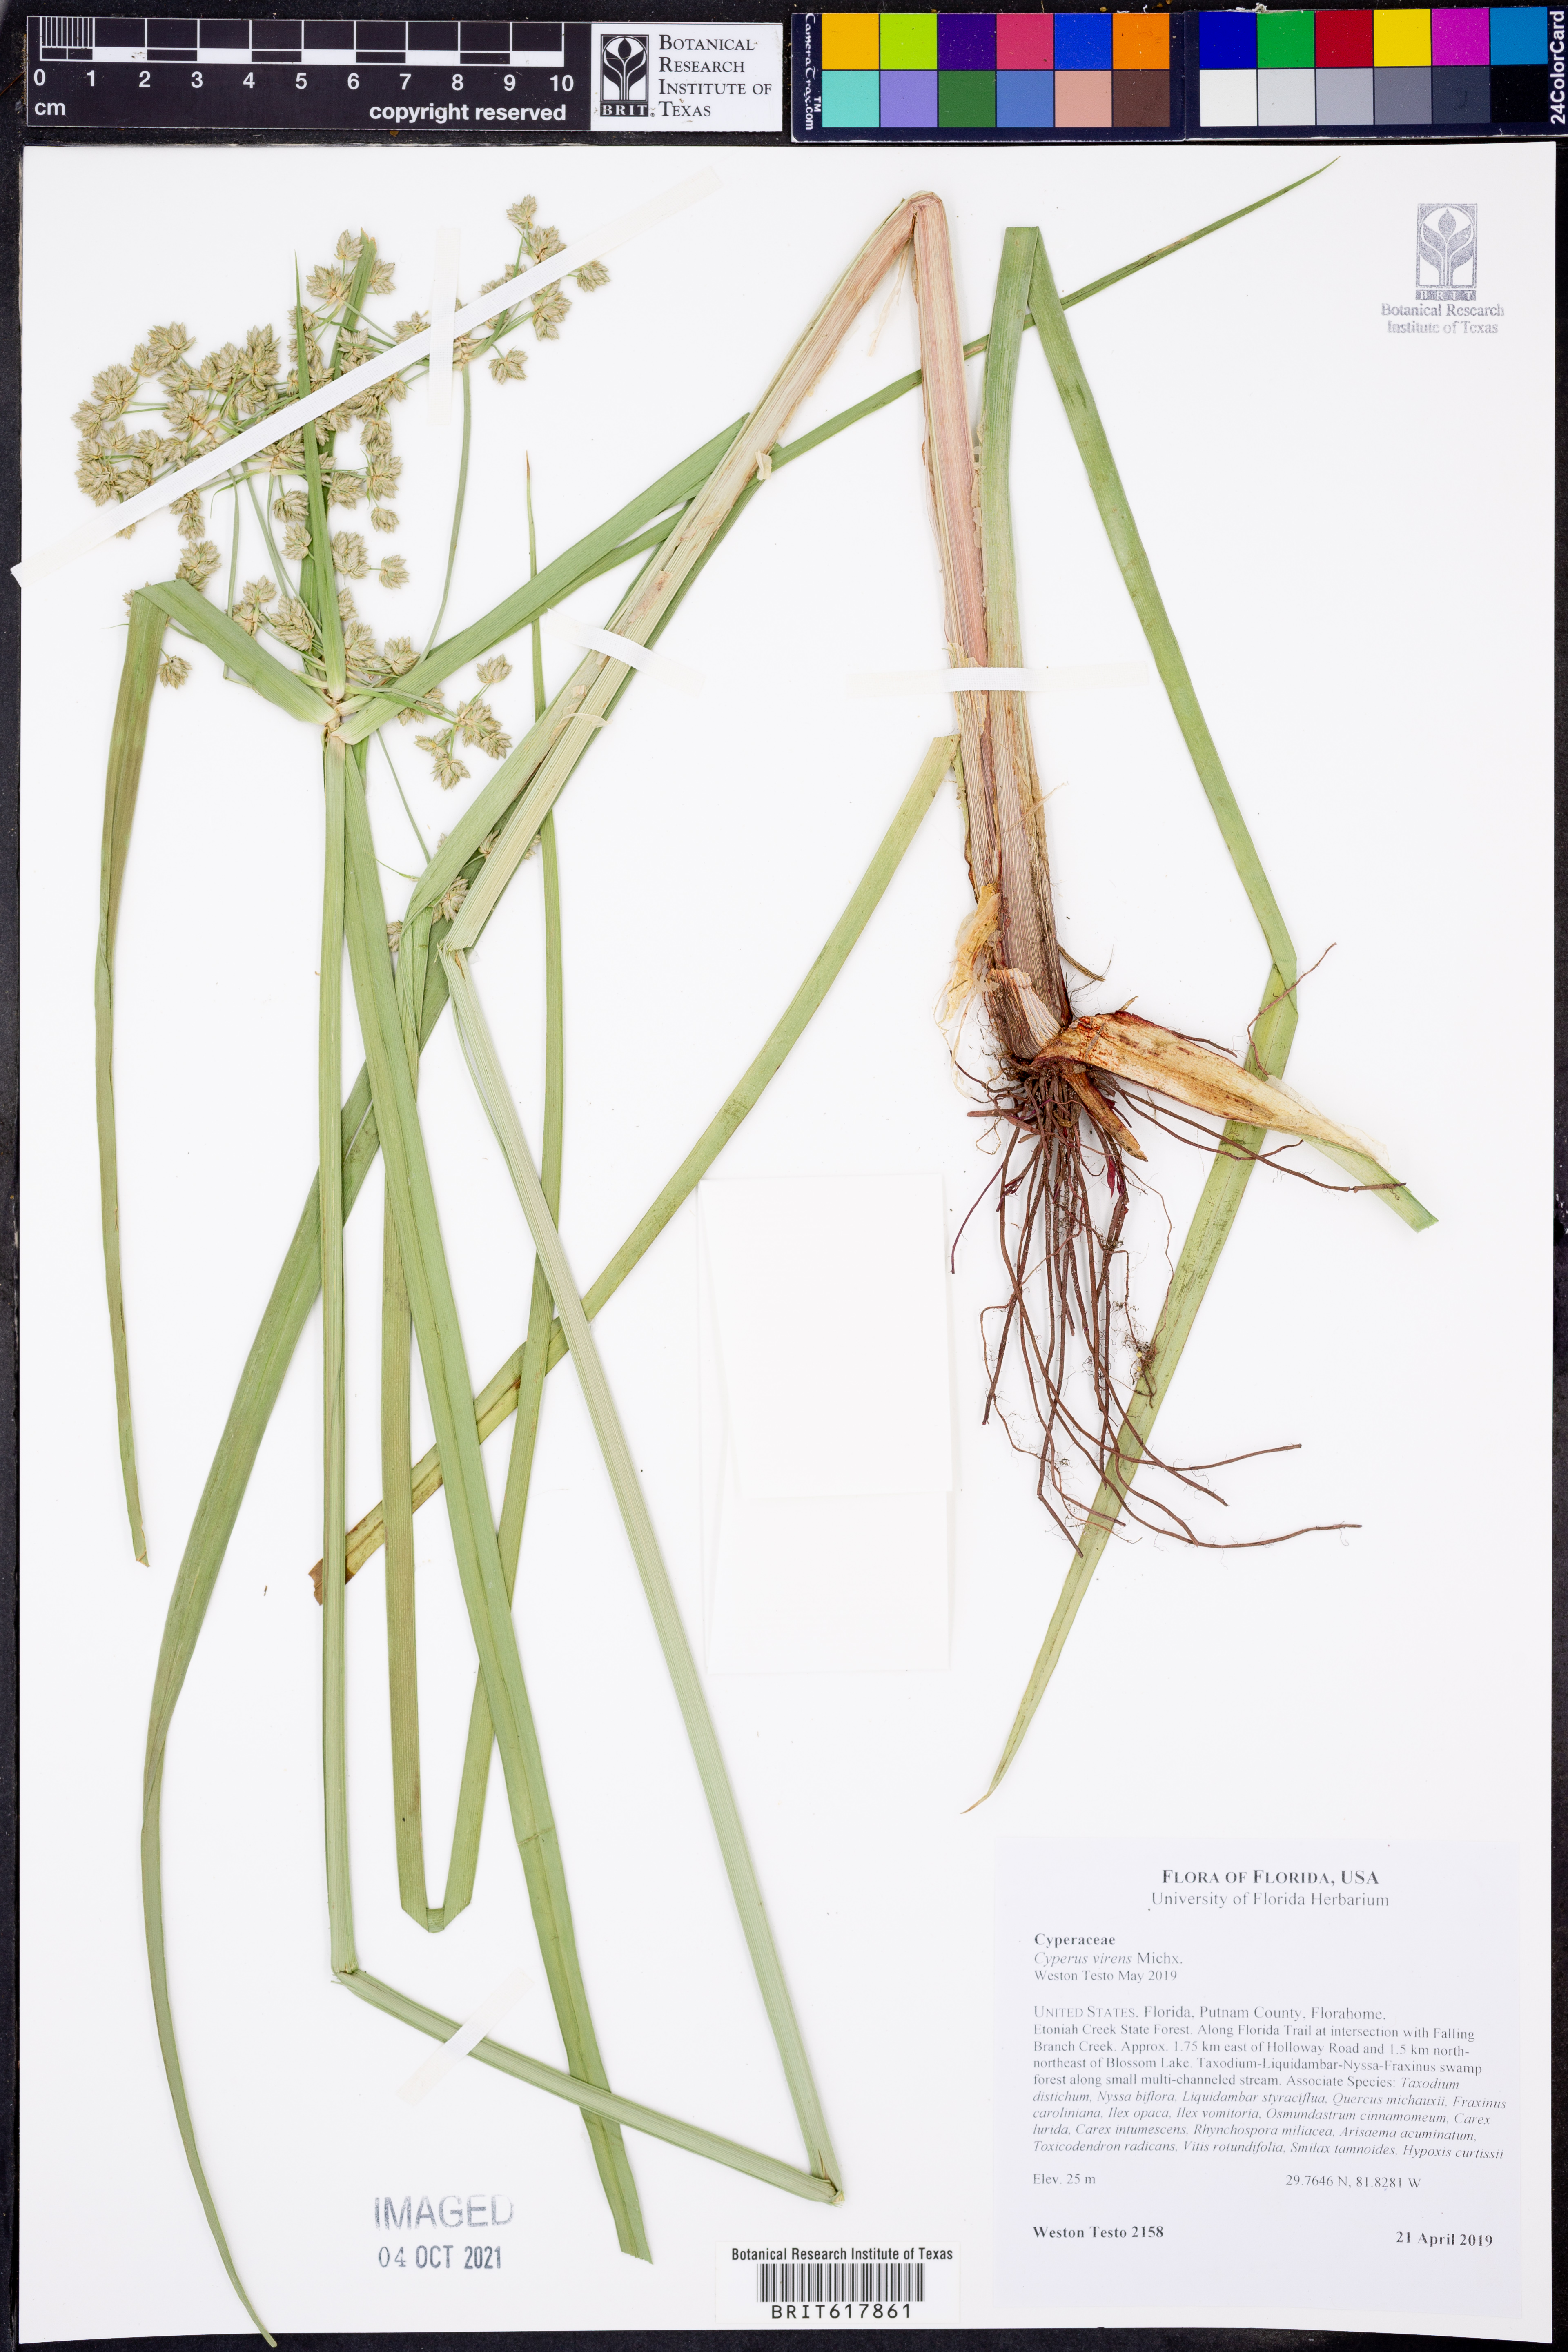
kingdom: Plantae
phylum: Tracheophyta
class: Liliopsida
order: Poales
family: Cyperaceae
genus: Cyperus
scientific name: Cyperus virens
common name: Green flatsedge
